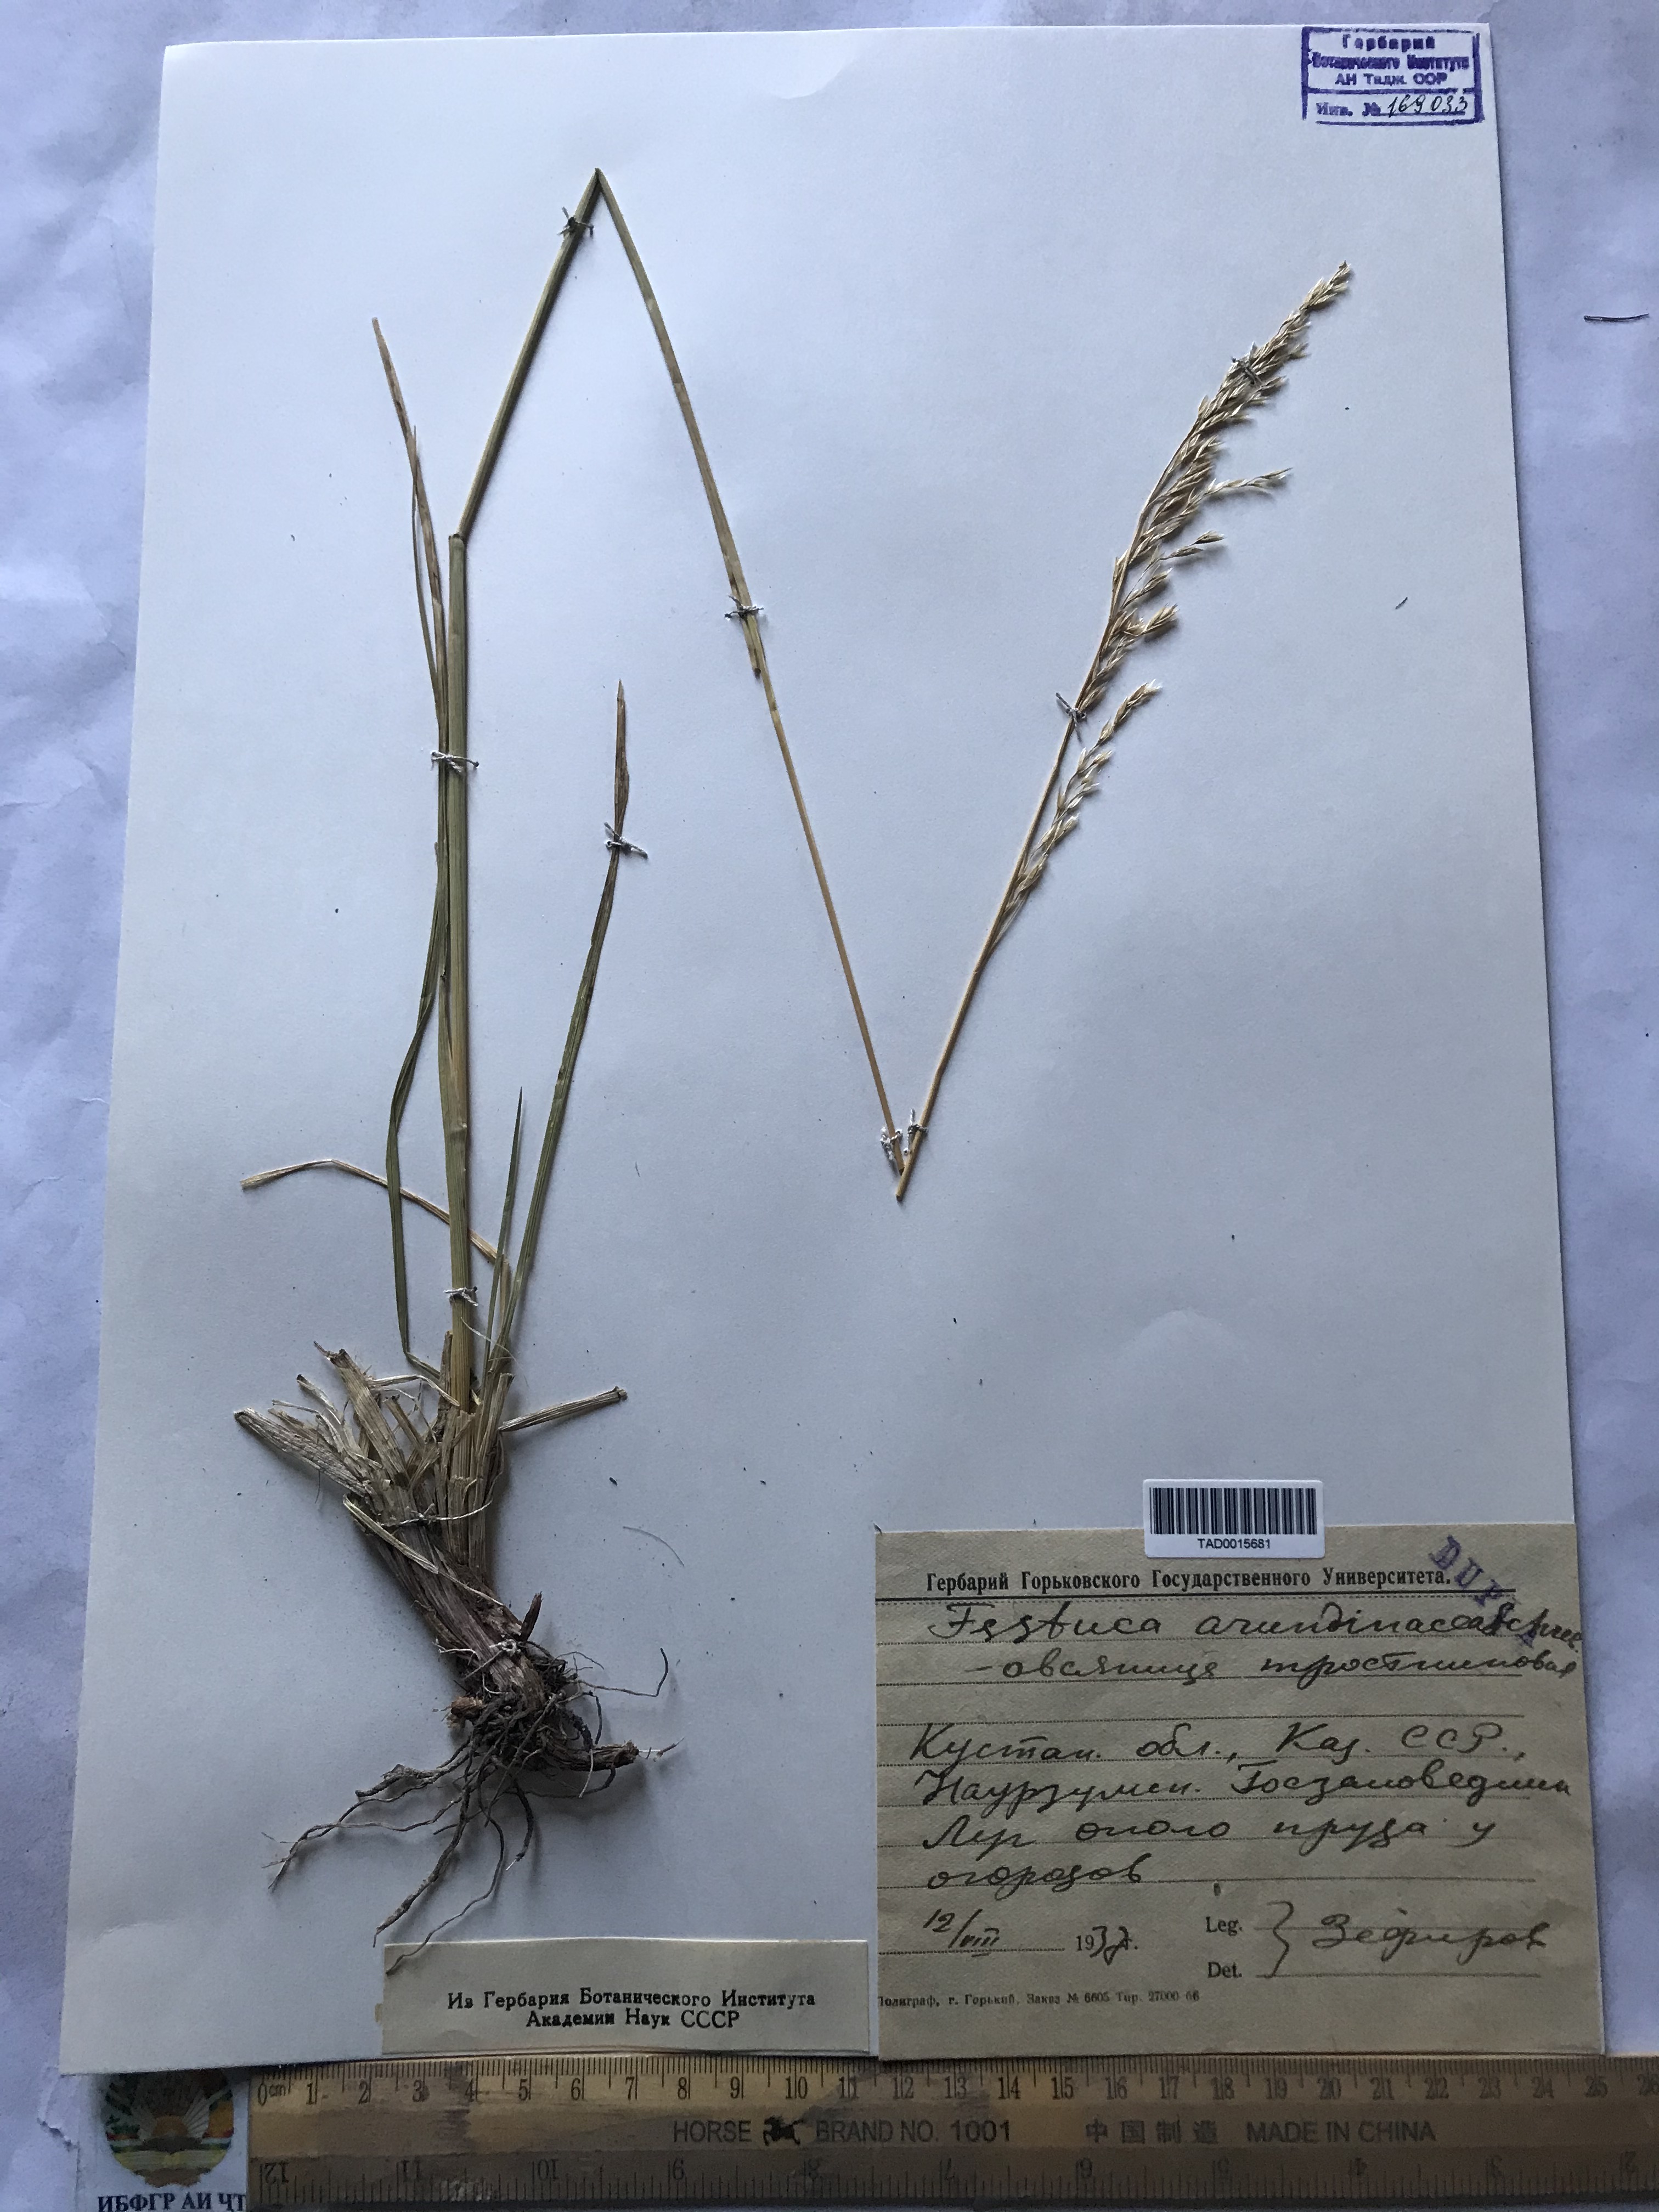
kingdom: Plantae
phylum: Tracheophyta
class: Liliopsida
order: Poales
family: Poaceae
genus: Lolium
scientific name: Lolium arundinaceum
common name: Reed fescue
